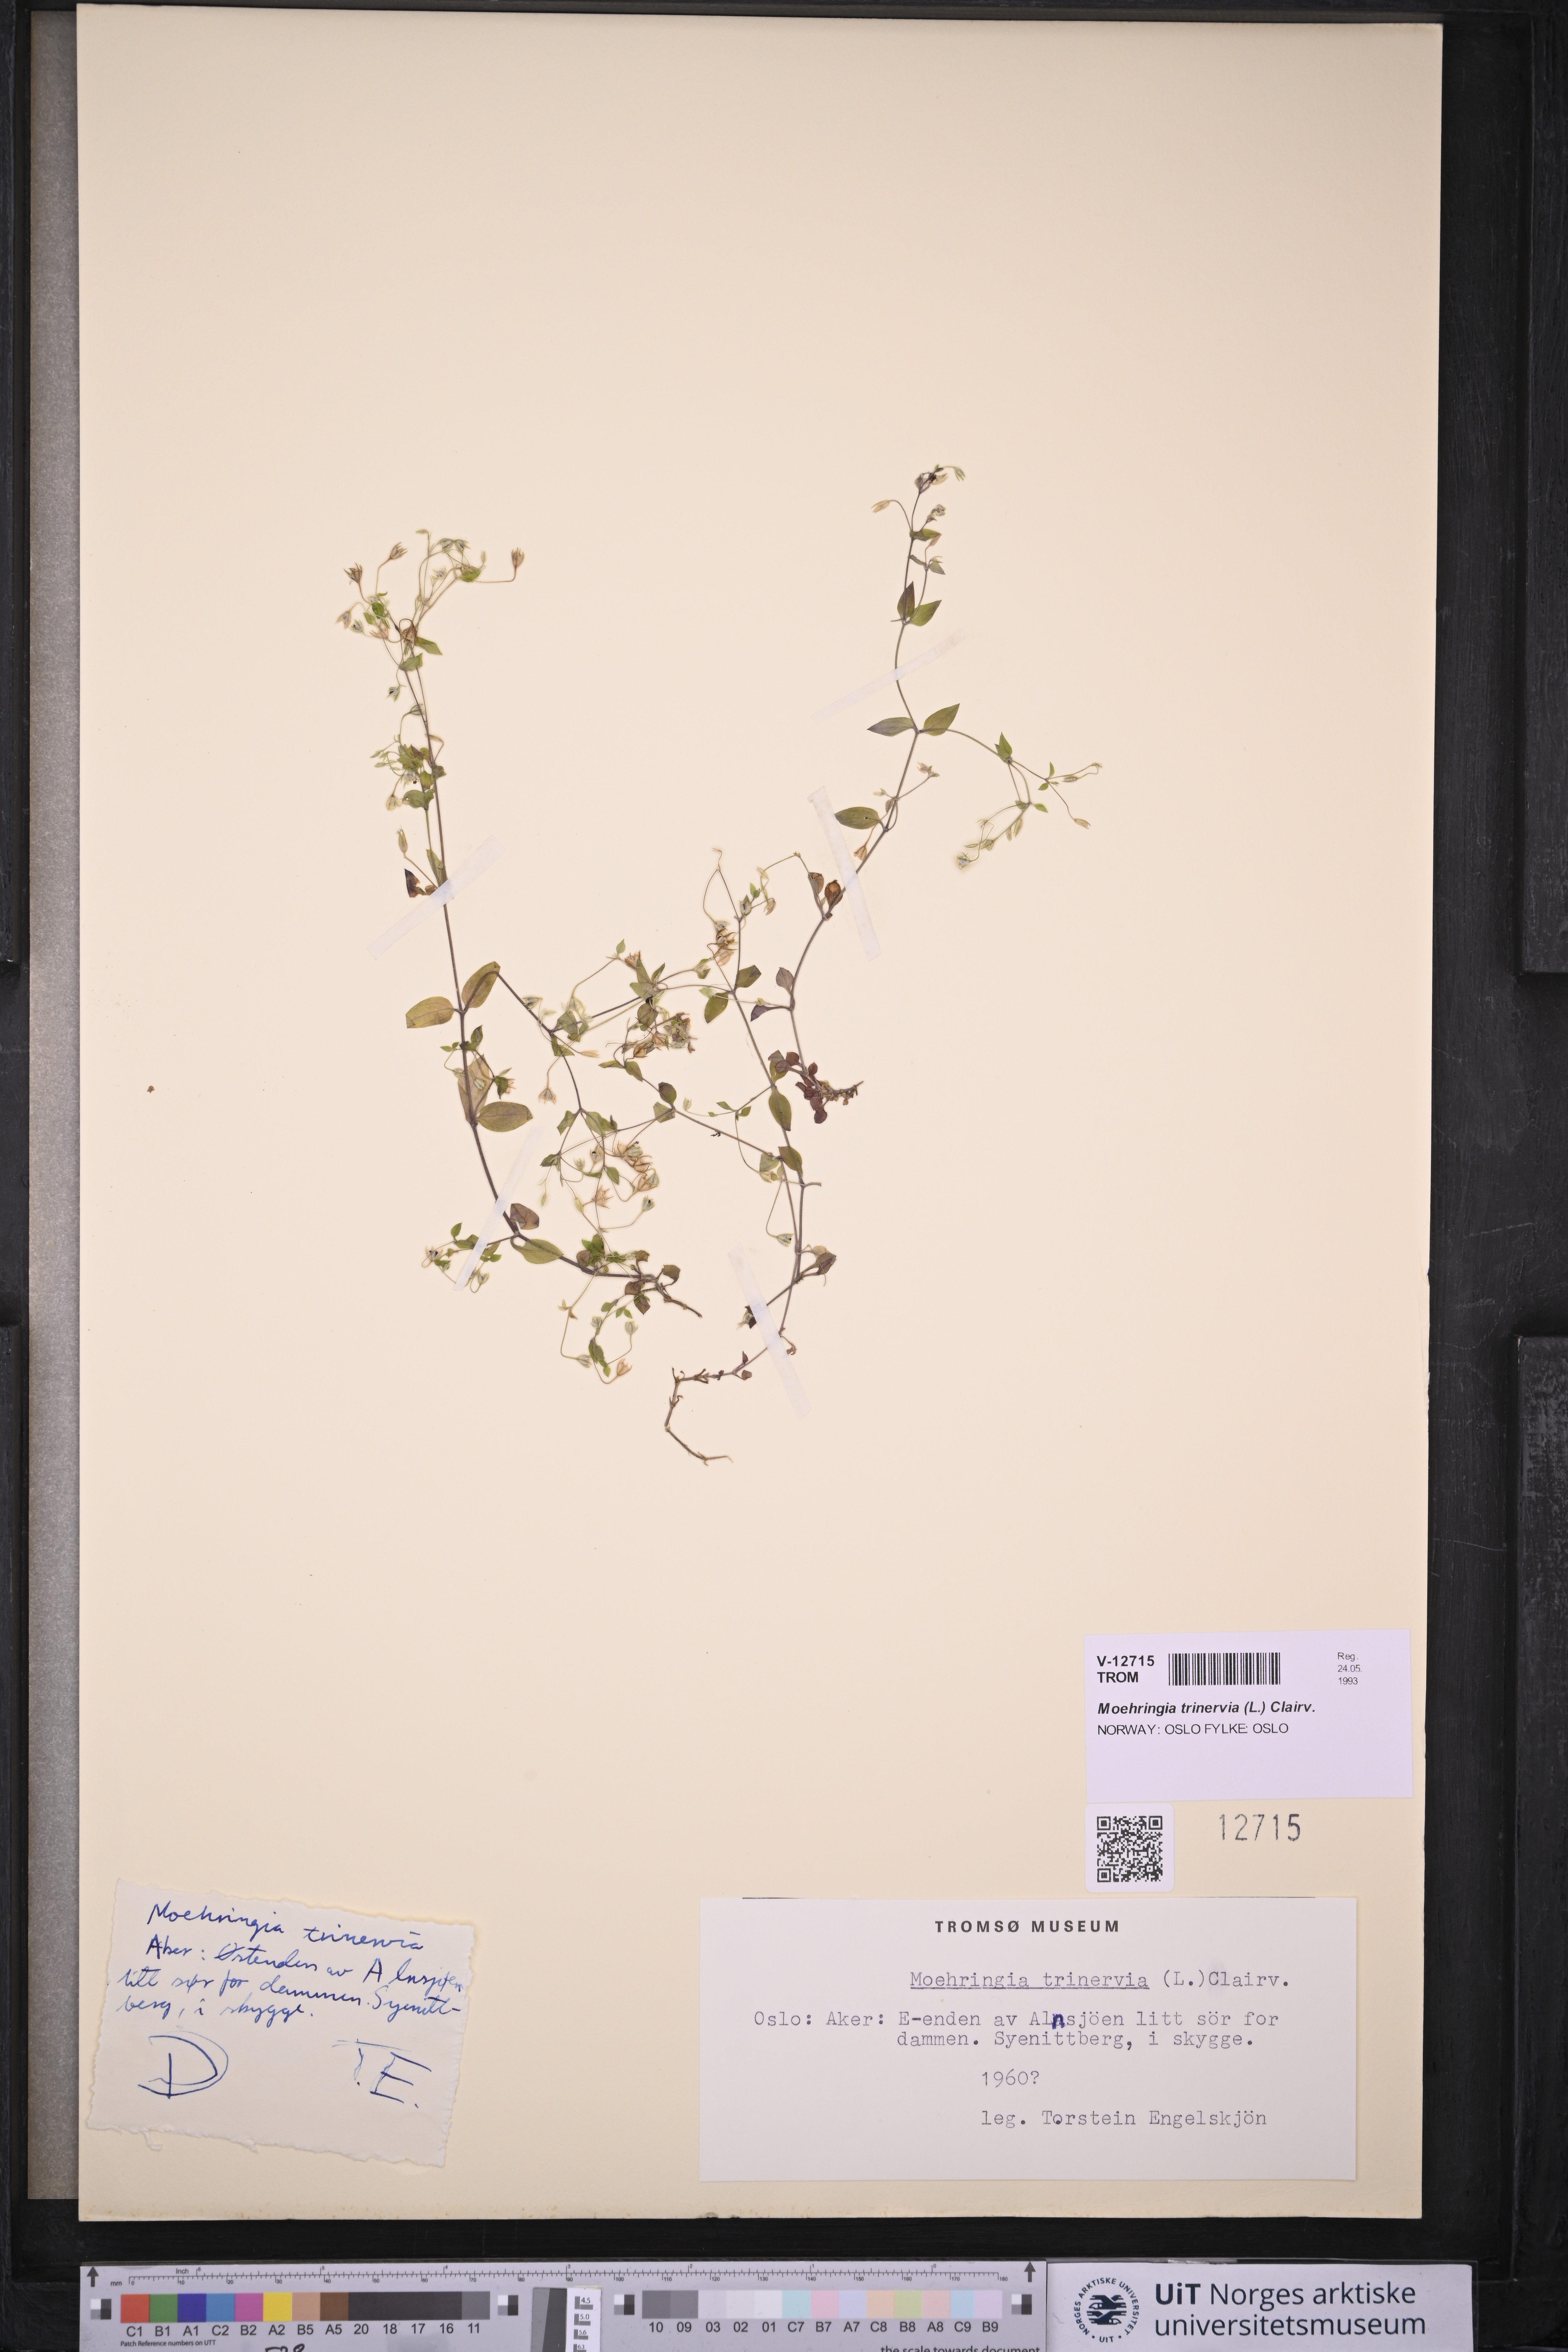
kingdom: Plantae
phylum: Tracheophyta
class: Magnoliopsida
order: Caryophyllales
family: Caryophyllaceae
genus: Moehringia
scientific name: Moehringia trinervia
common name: Three-nerved sandwort
